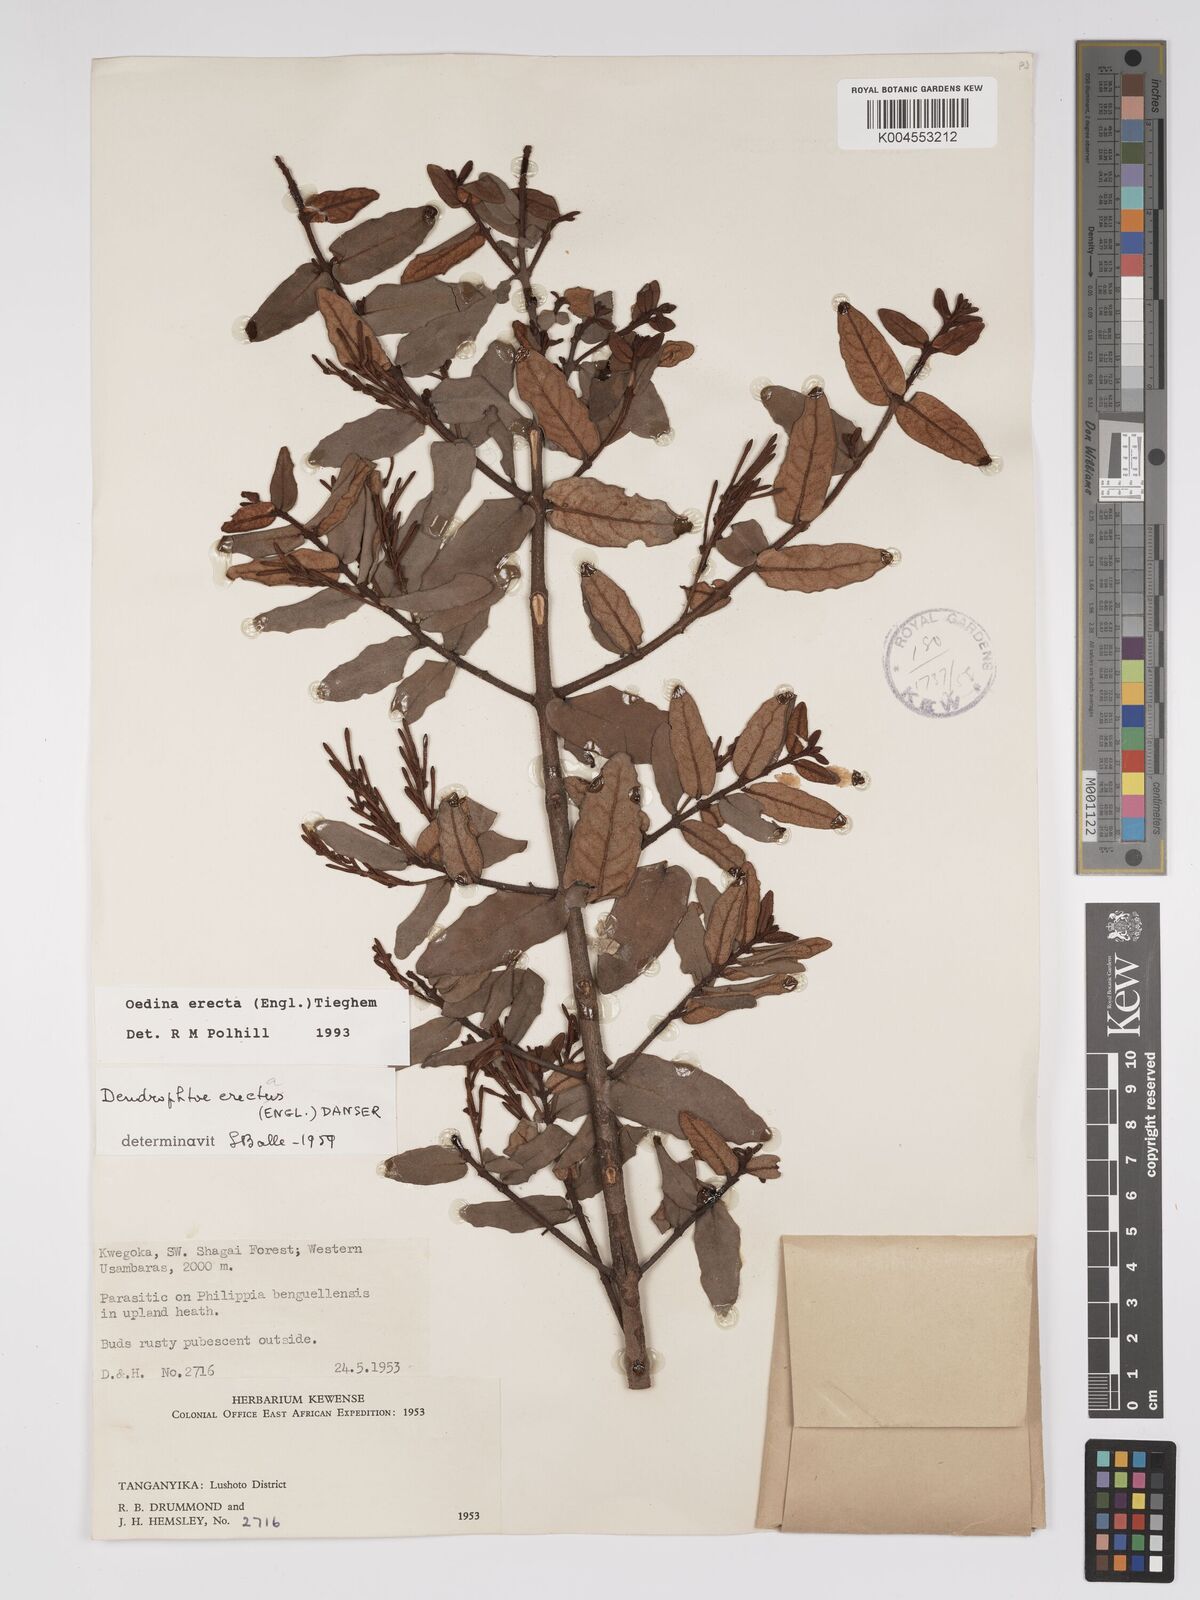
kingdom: Plantae
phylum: Tracheophyta
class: Magnoliopsida
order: Santalales
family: Loranthaceae
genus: Oedina
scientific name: Oedina erecta
